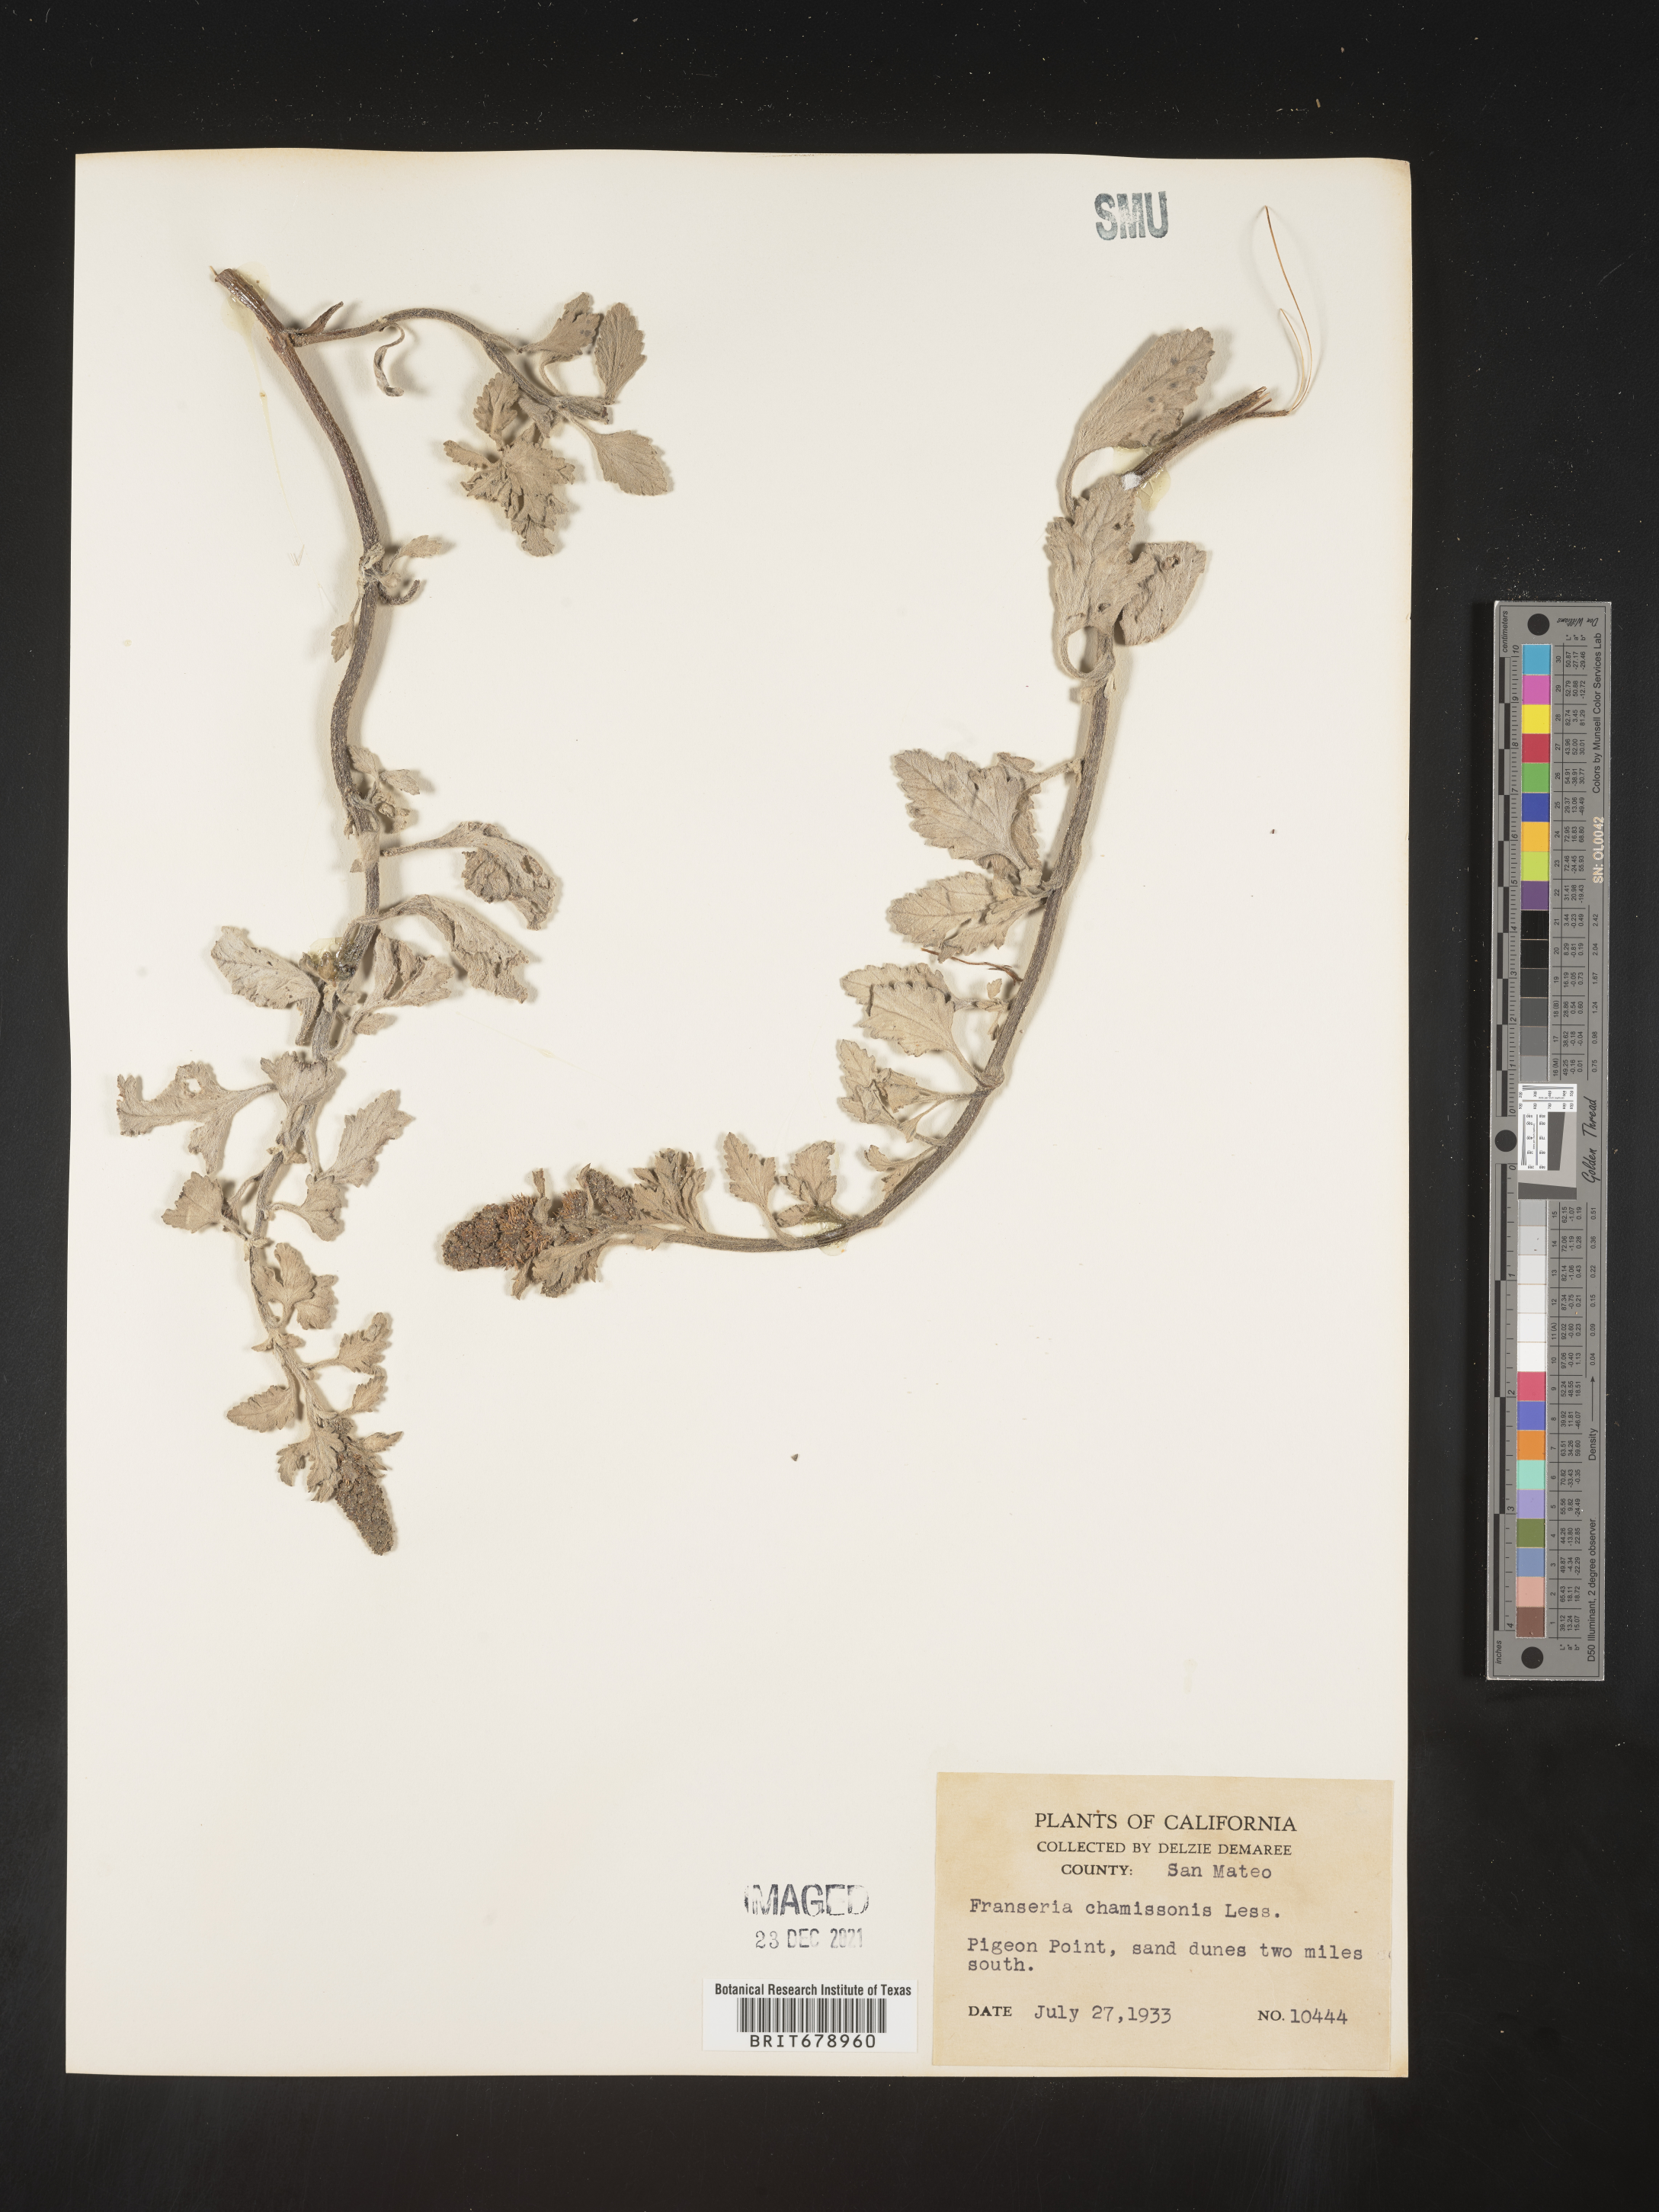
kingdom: Plantae
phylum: Tracheophyta
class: Magnoliopsida
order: Asterales
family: Asteraceae
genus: Ambrosia
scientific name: Ambrosia chamissonis
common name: Beachbur
